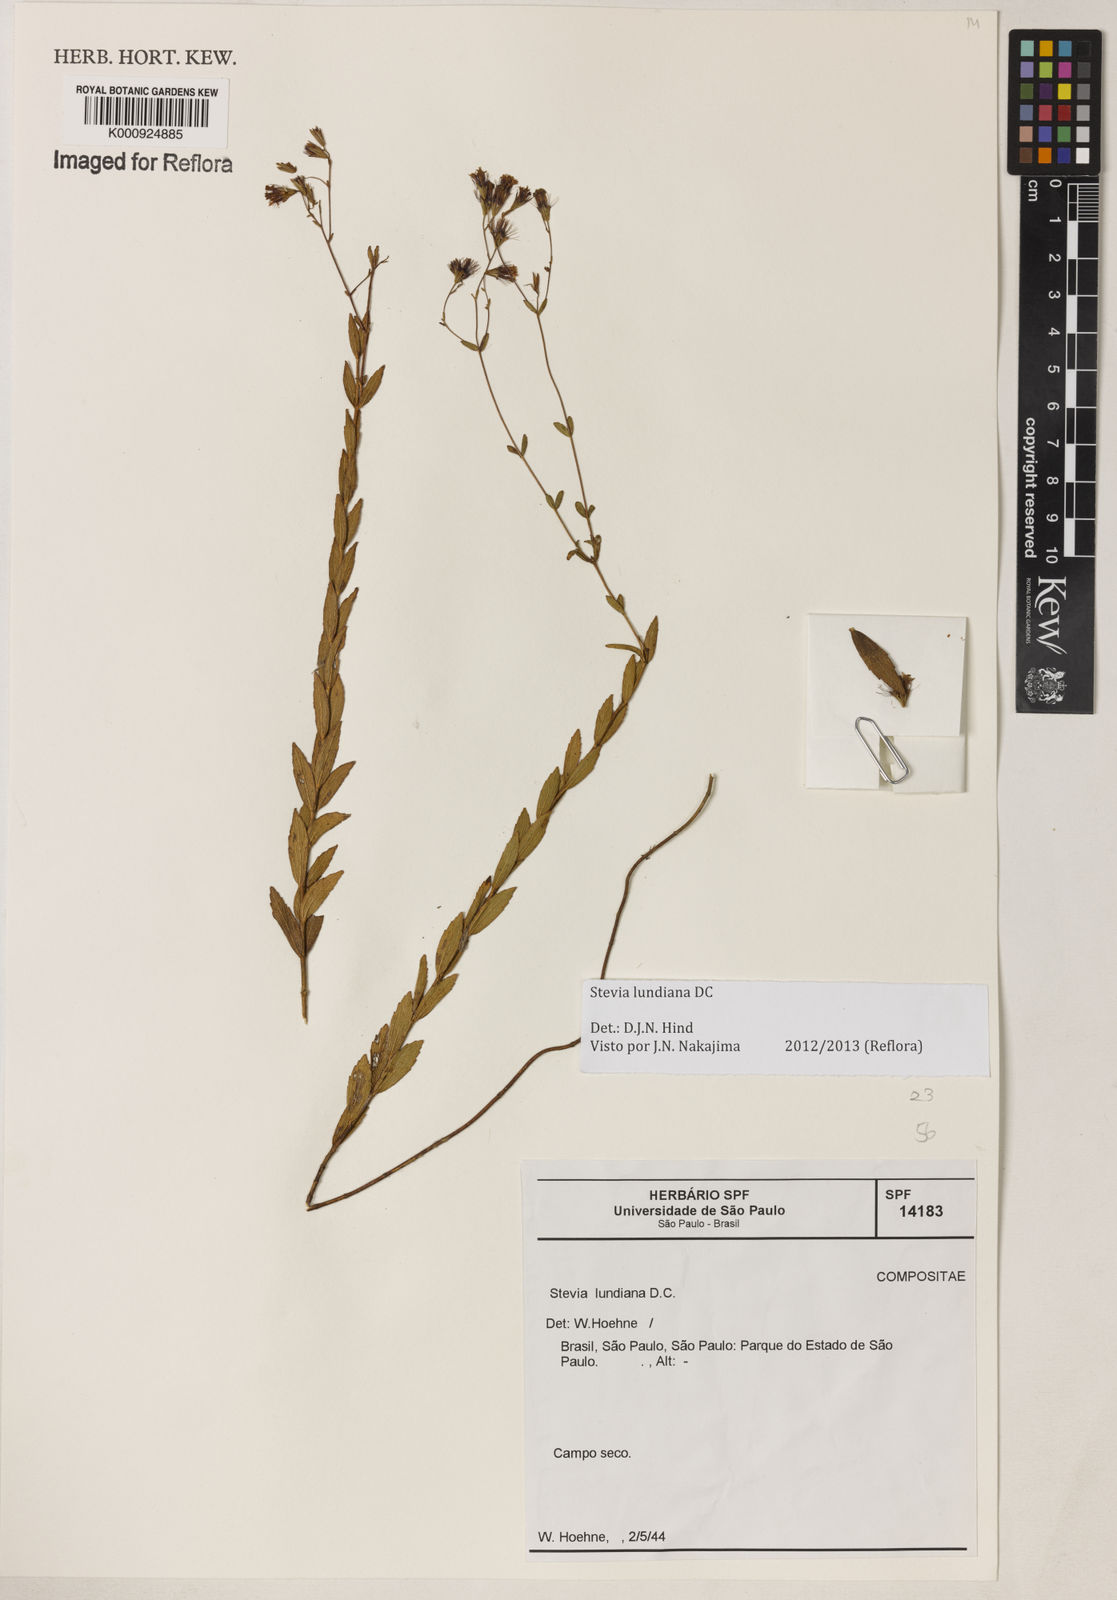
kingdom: Plantae
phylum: Tracheophyta
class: Magnoliopsida
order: Asterales
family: Asteraceae
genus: Stevia
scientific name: Stevia lundiana
